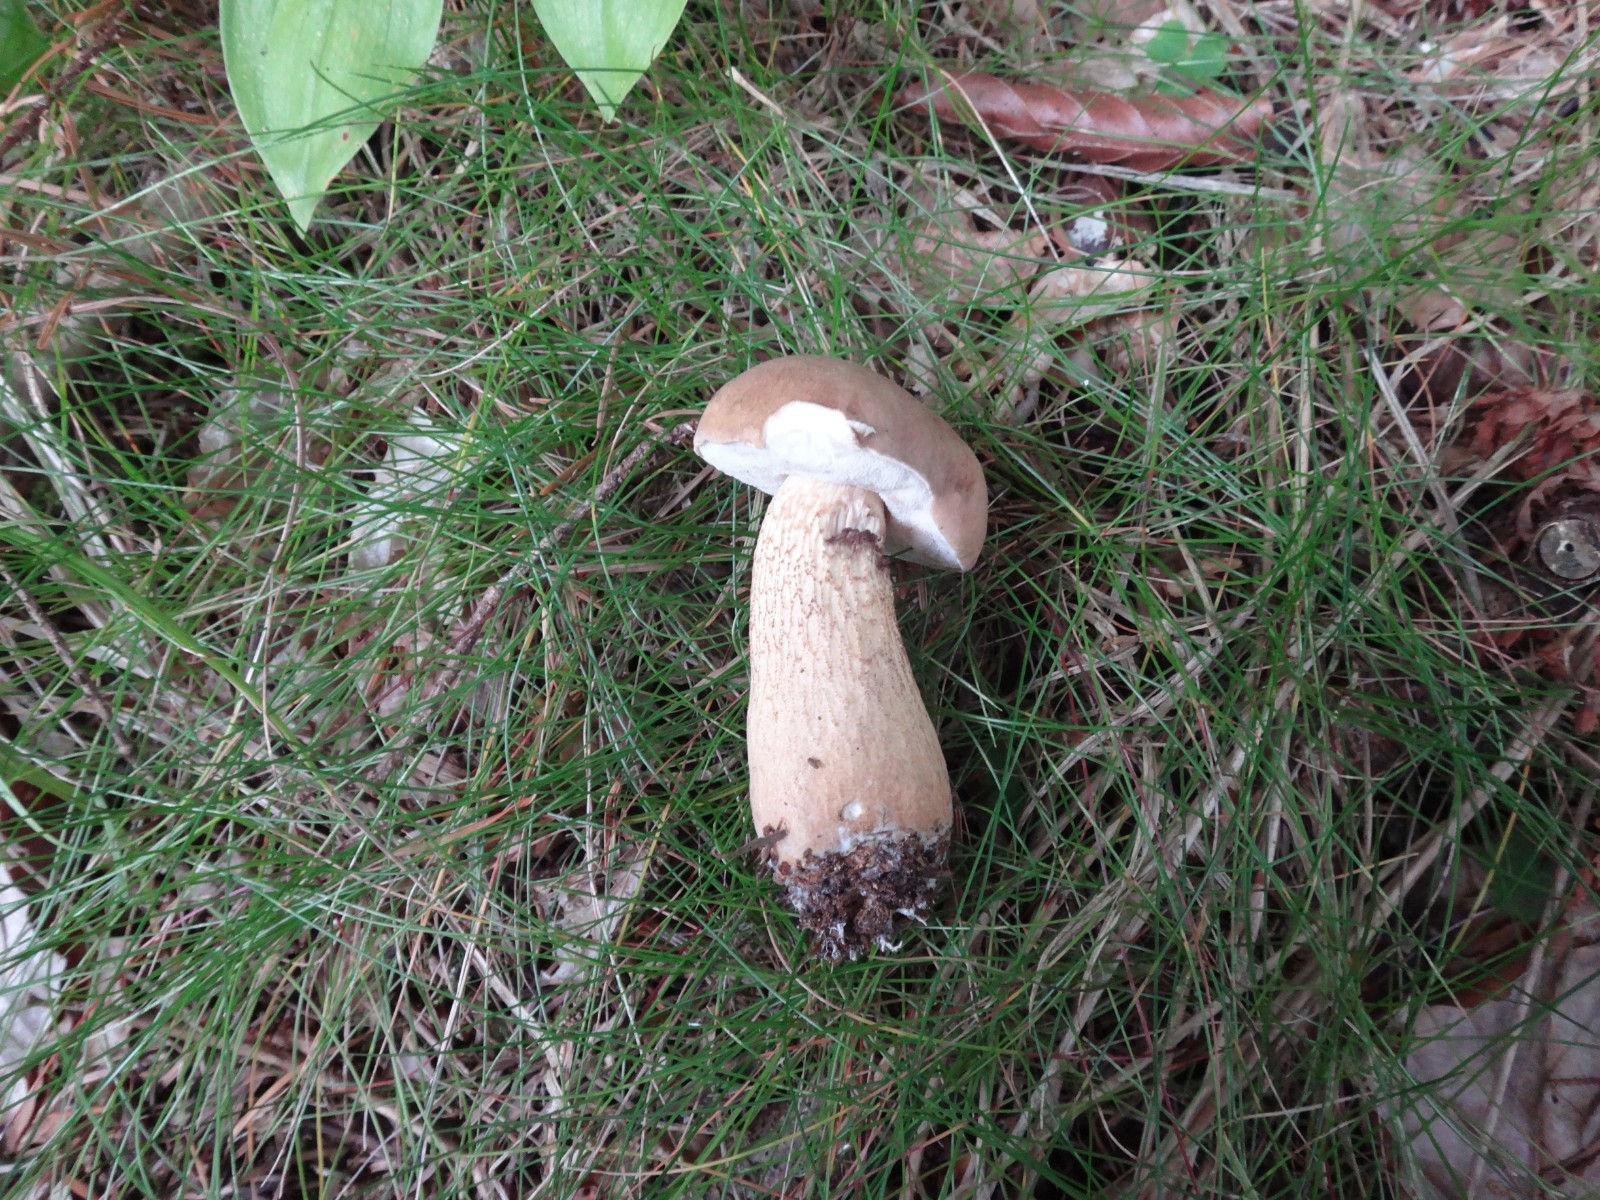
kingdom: Fungi
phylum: Basidiomycota
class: Agaricomycetes
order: Boletales
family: Boletaceae
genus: Tylopilus
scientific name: Tylopilus felleus
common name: galderørhat
